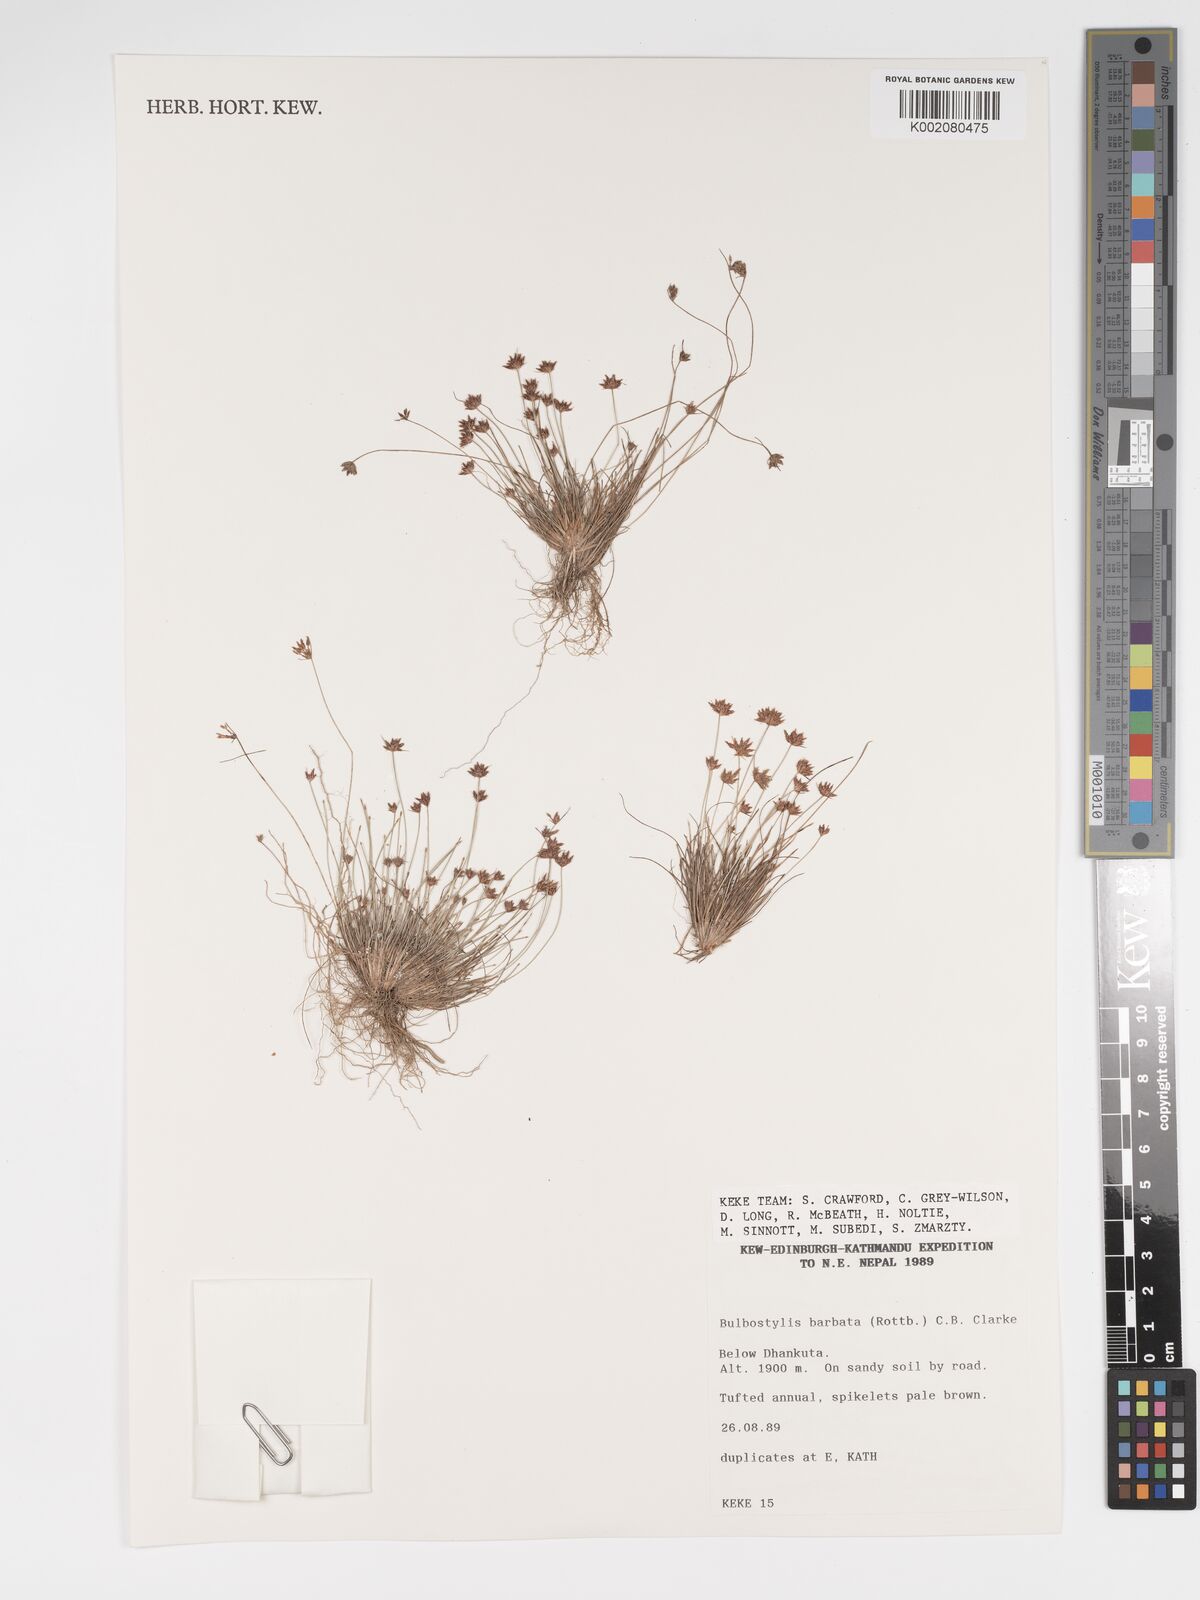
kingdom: Plantae
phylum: Tracheophyta
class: Liliopsida
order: Poales
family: Cyperaceae
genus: Bulbostylis
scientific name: Bulbostylis barbata
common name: Watergrass
